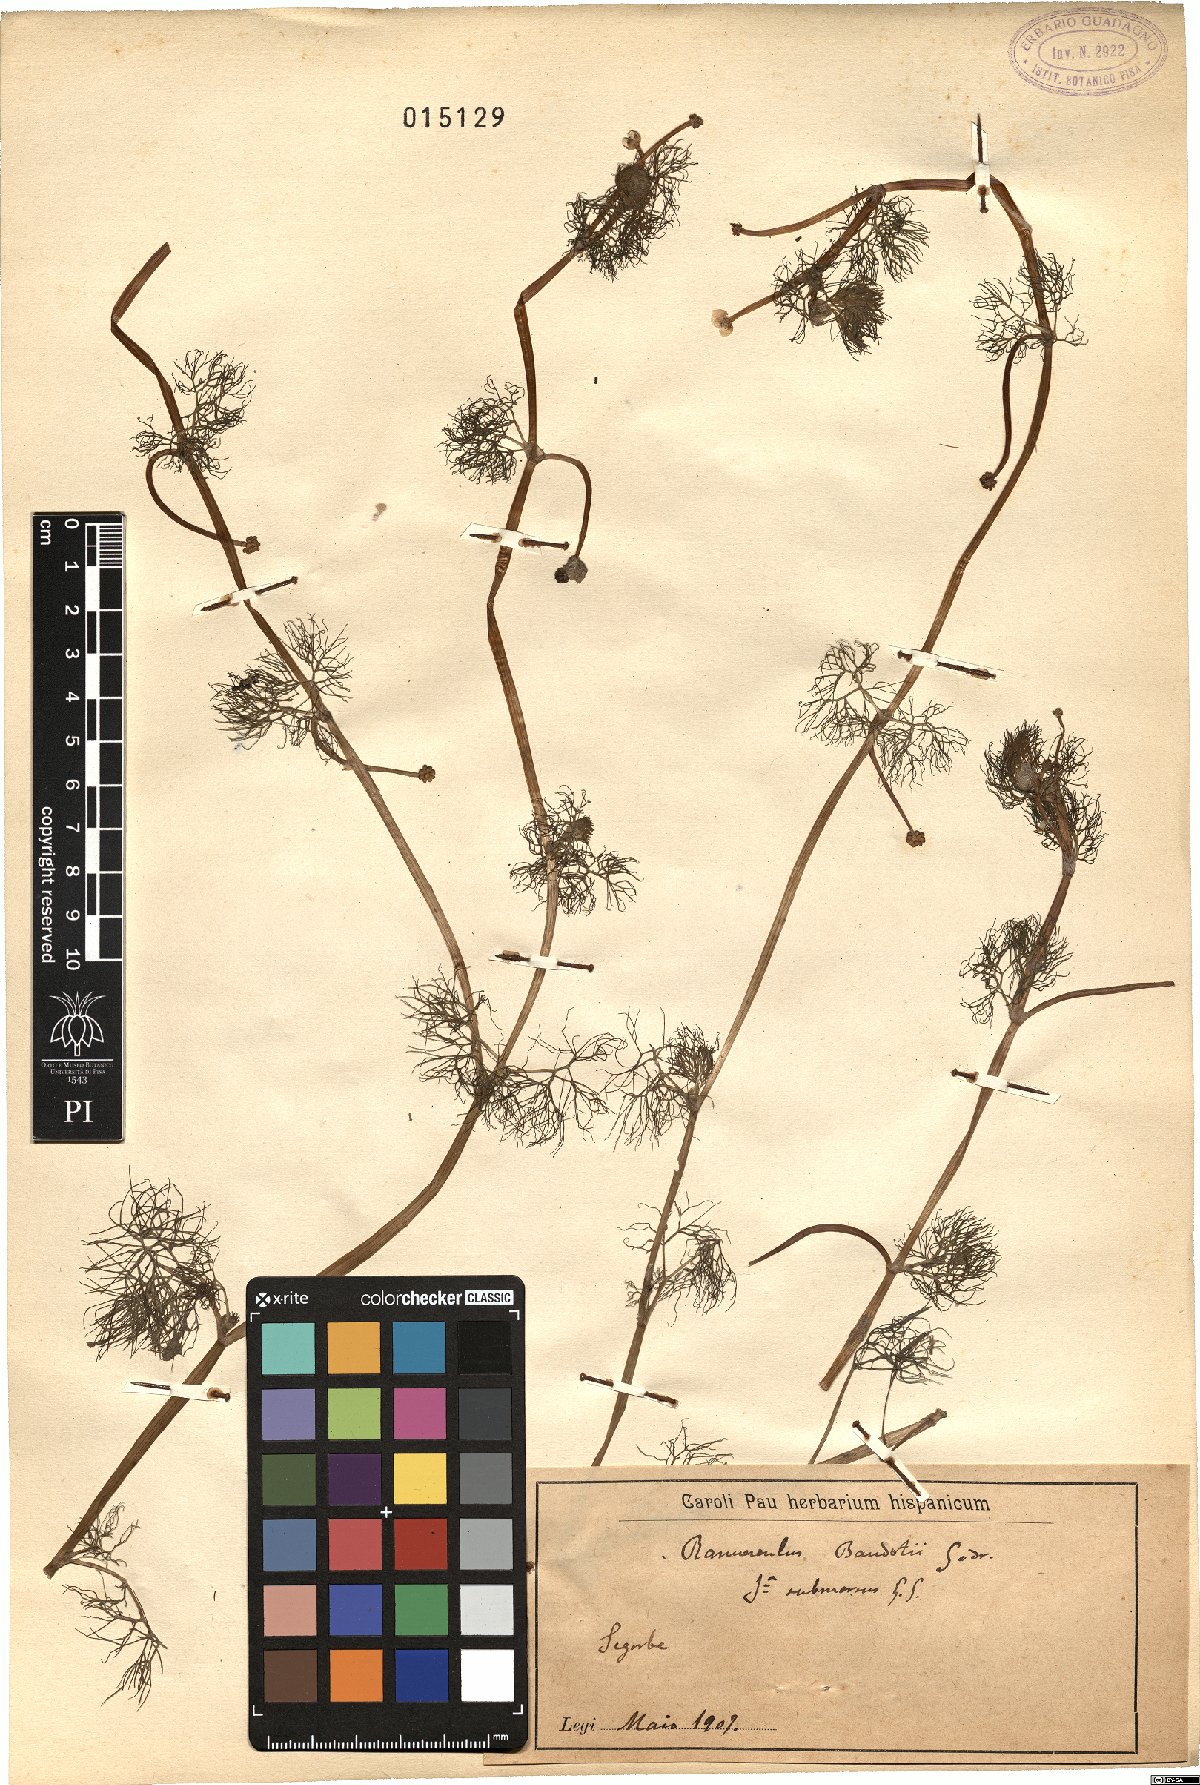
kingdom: Plantae
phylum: Tracheophyta
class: Magnoliopsida
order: Ranunculales
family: Ranunculaceae
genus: Ranunculus
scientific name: Ranunculus peltatus
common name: Pond water-crowfoot
